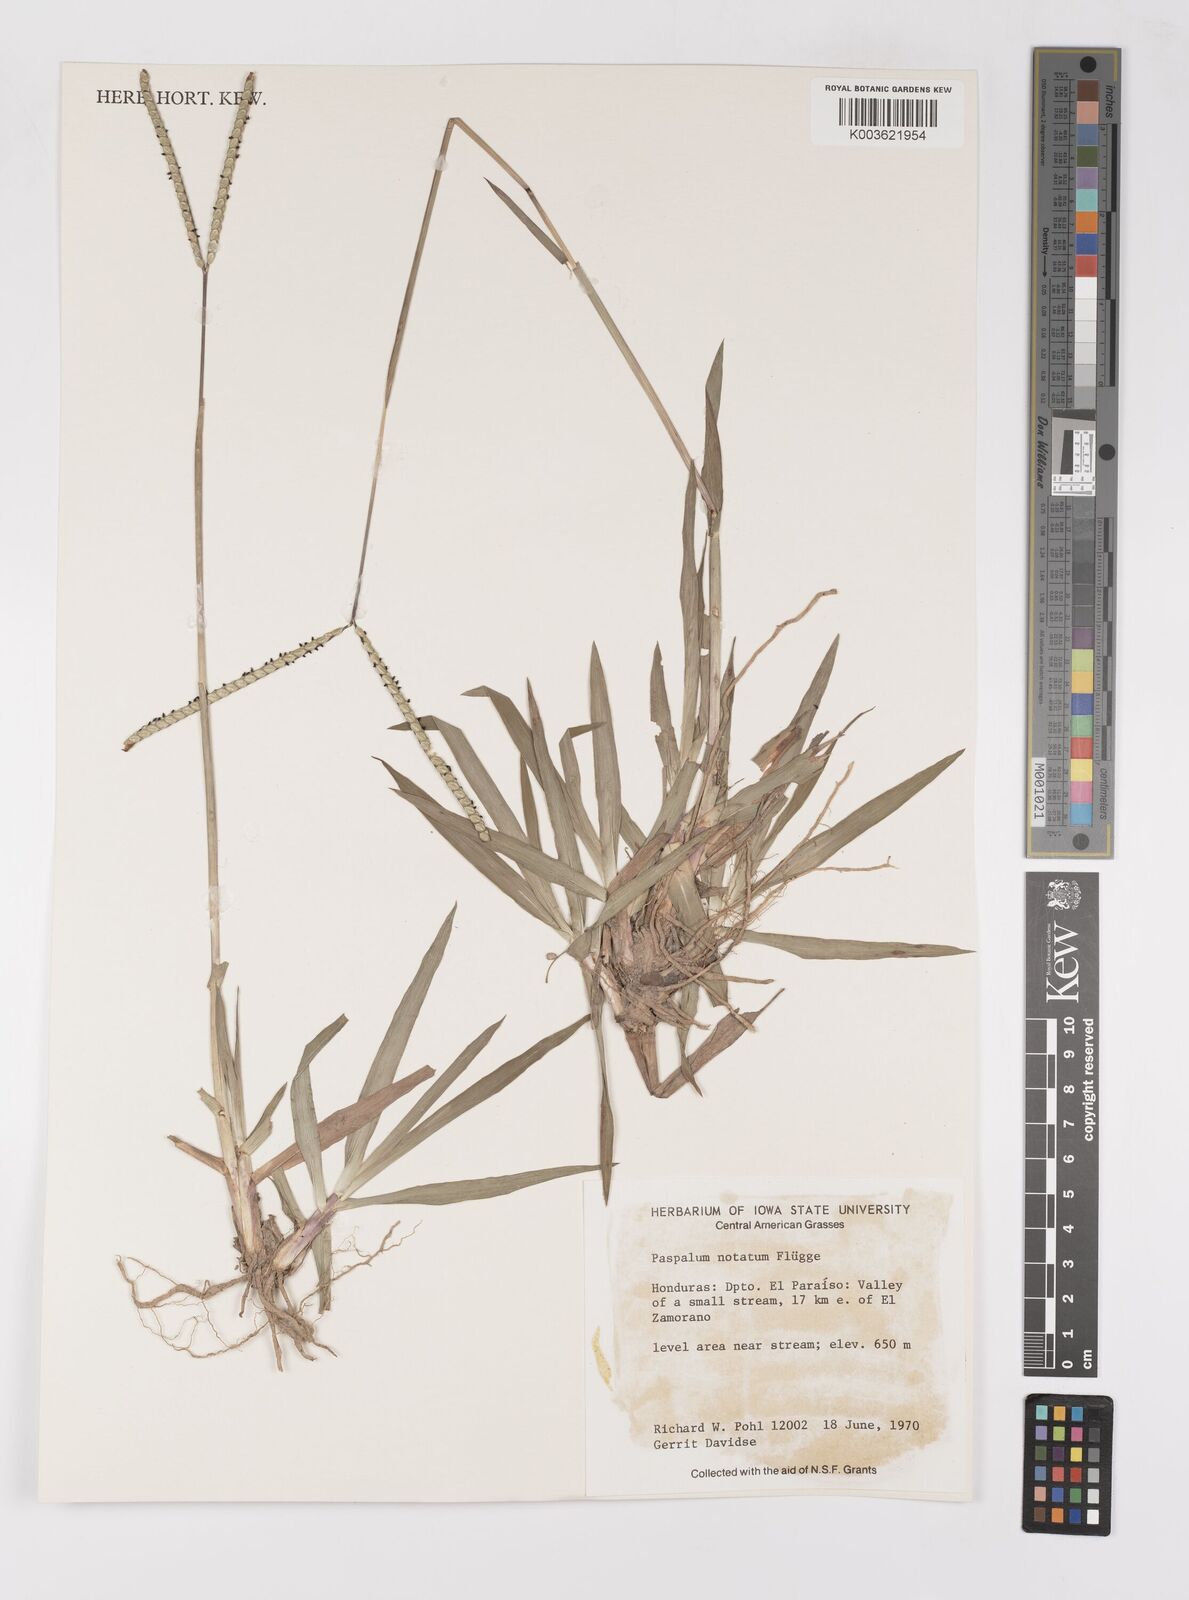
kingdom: Plantae
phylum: Tracheophyta
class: Liliopsida
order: Poales
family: Poaceae
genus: Paspalum
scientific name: Paspalum notatum
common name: Bahiagrass
